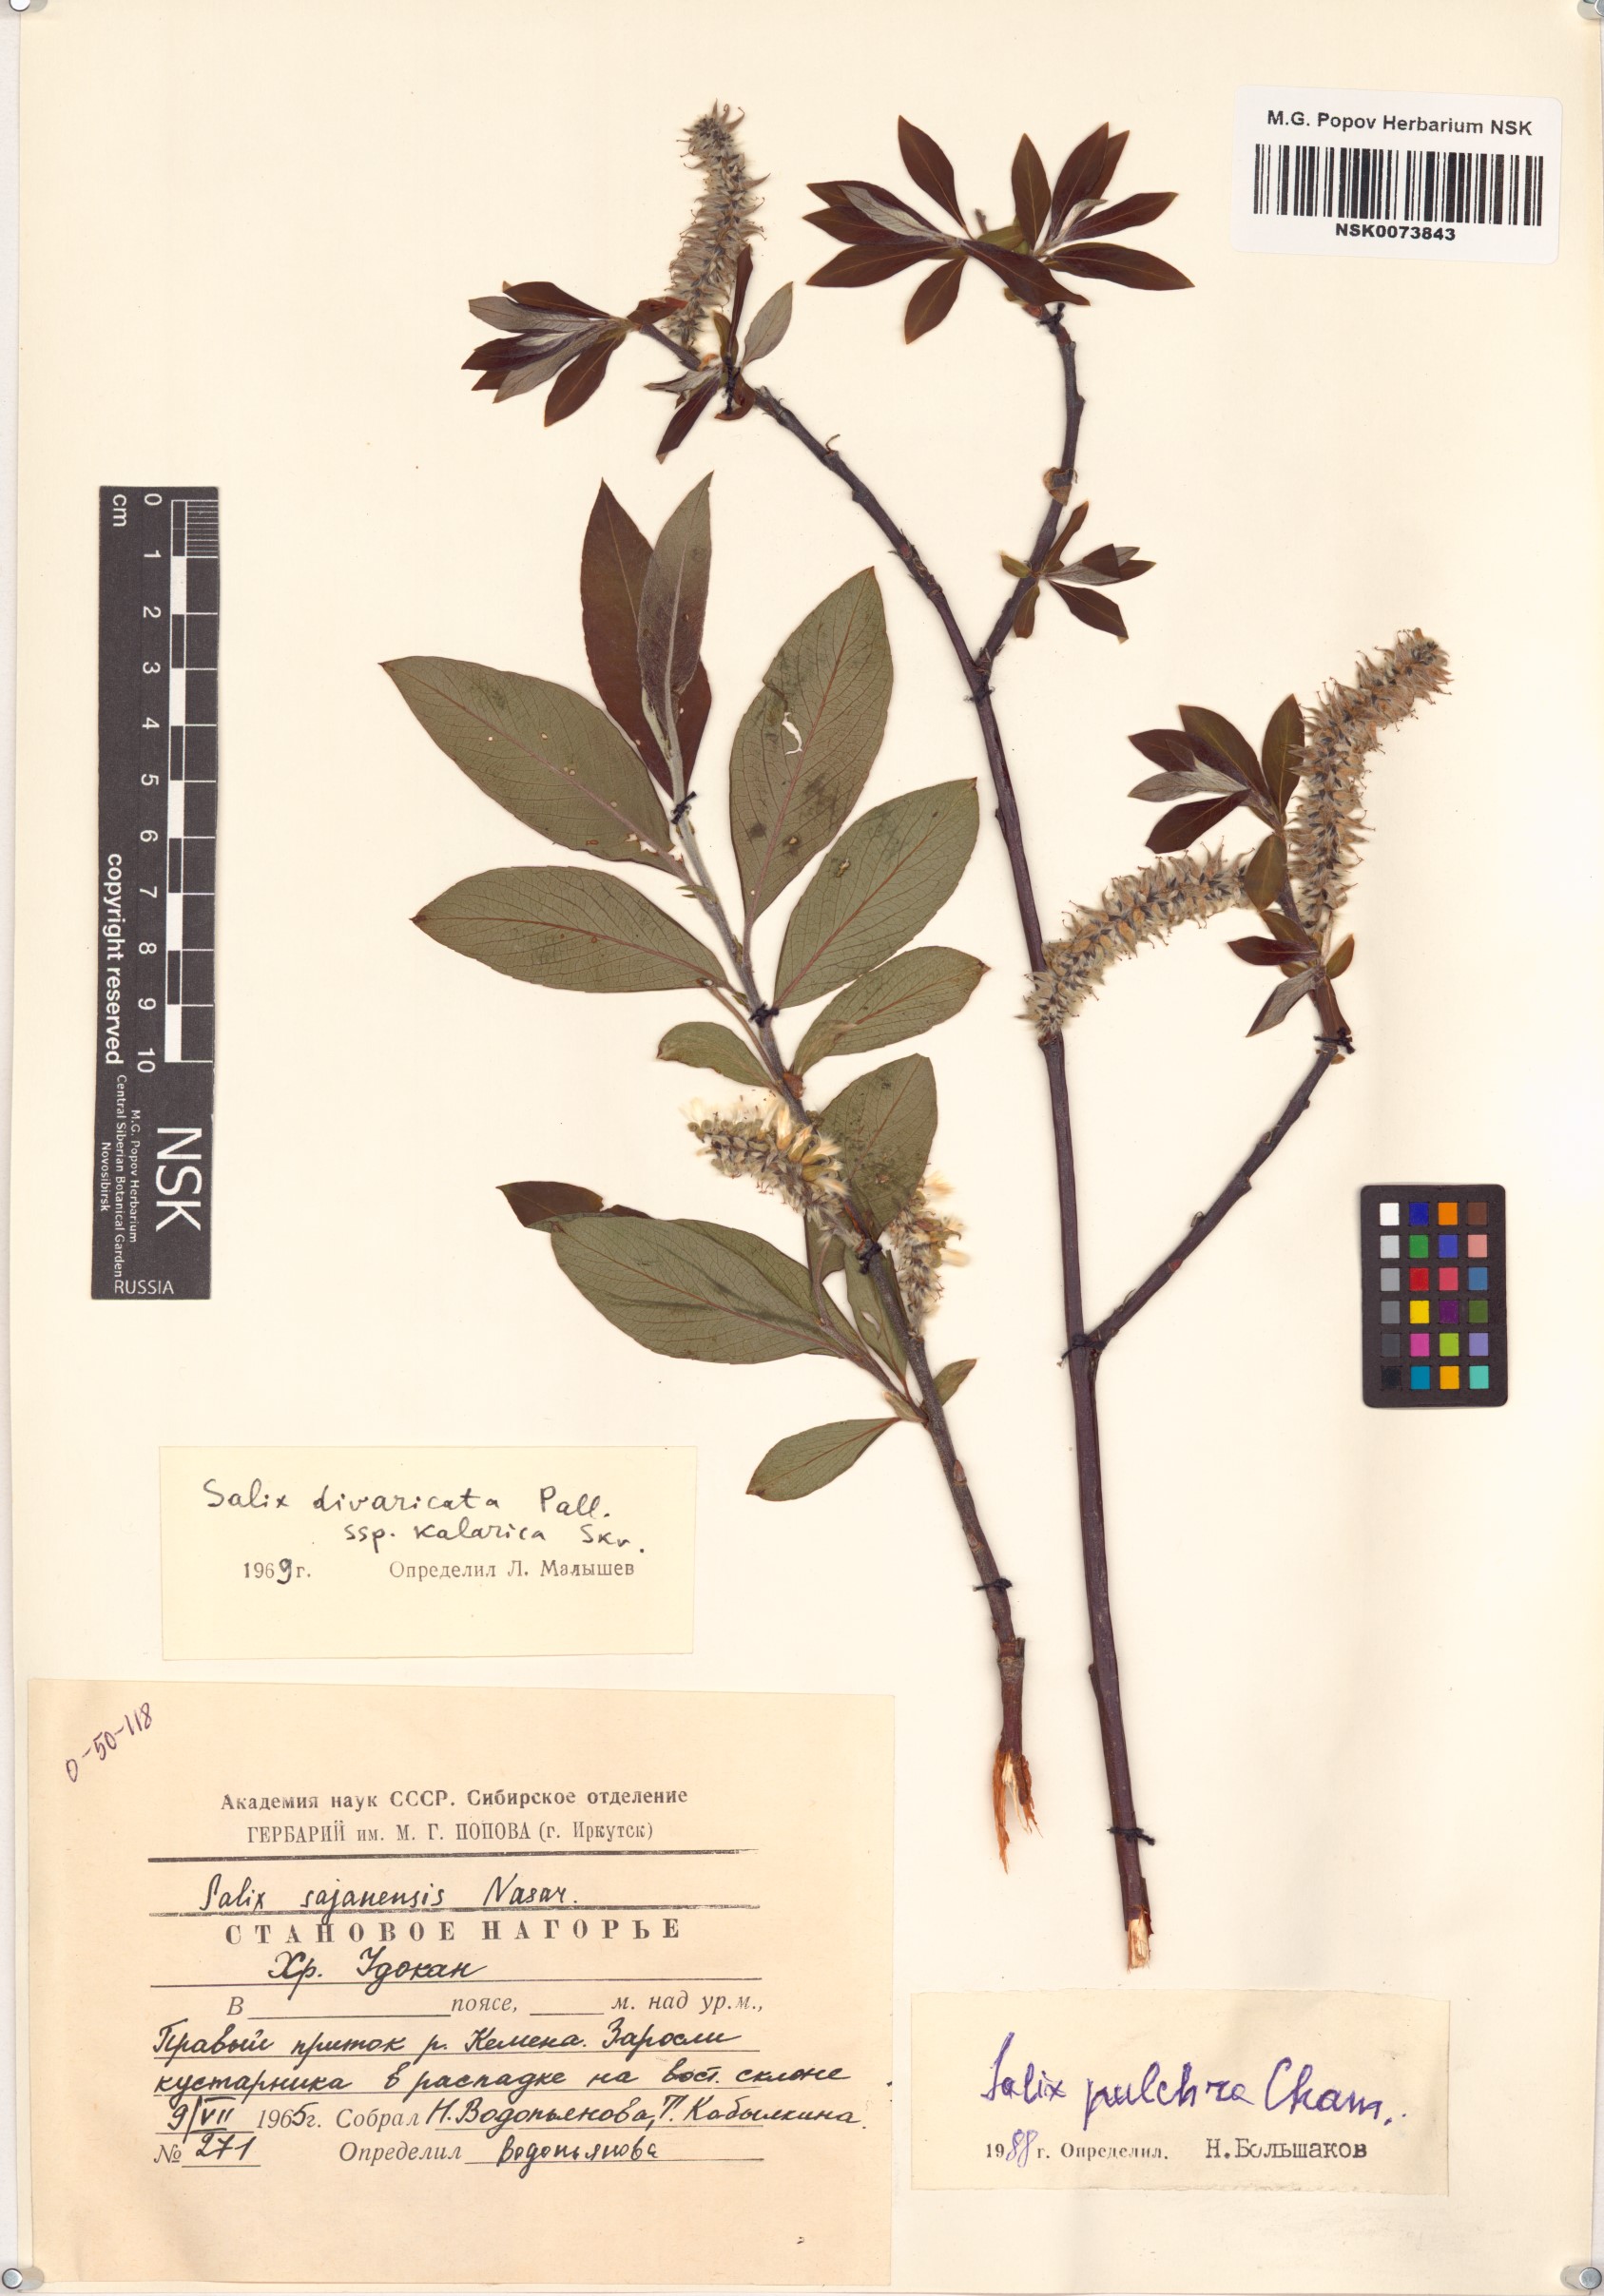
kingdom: Plantae
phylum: Tracheophyta
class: Magnoliopsida
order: Malpighiales
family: Salicaceae
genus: Salix
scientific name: Salix pulchra
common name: Diamond-leaved willow
